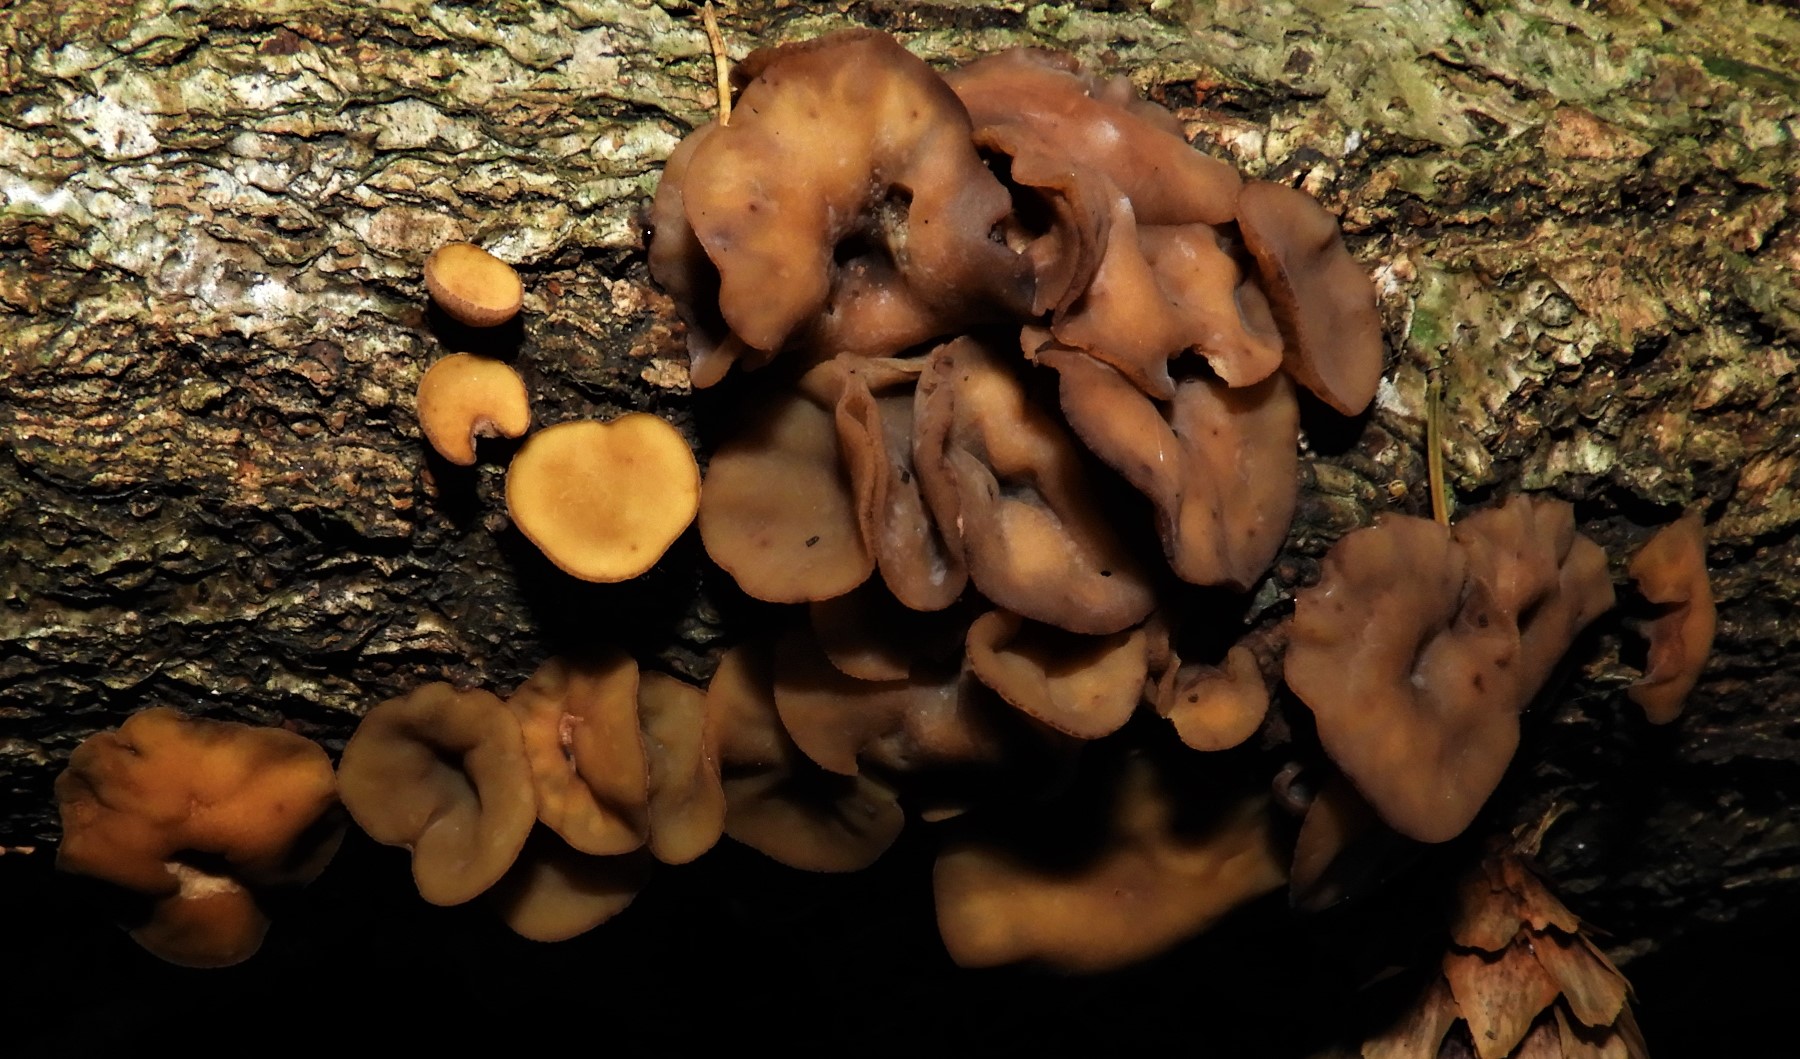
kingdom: Fungi
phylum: Ascomycota
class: Leotiomycetes
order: Helotiales
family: Rutstroemiaceae
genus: Rutstroemia
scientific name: Rutstroemia firma
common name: gren-brunskive
